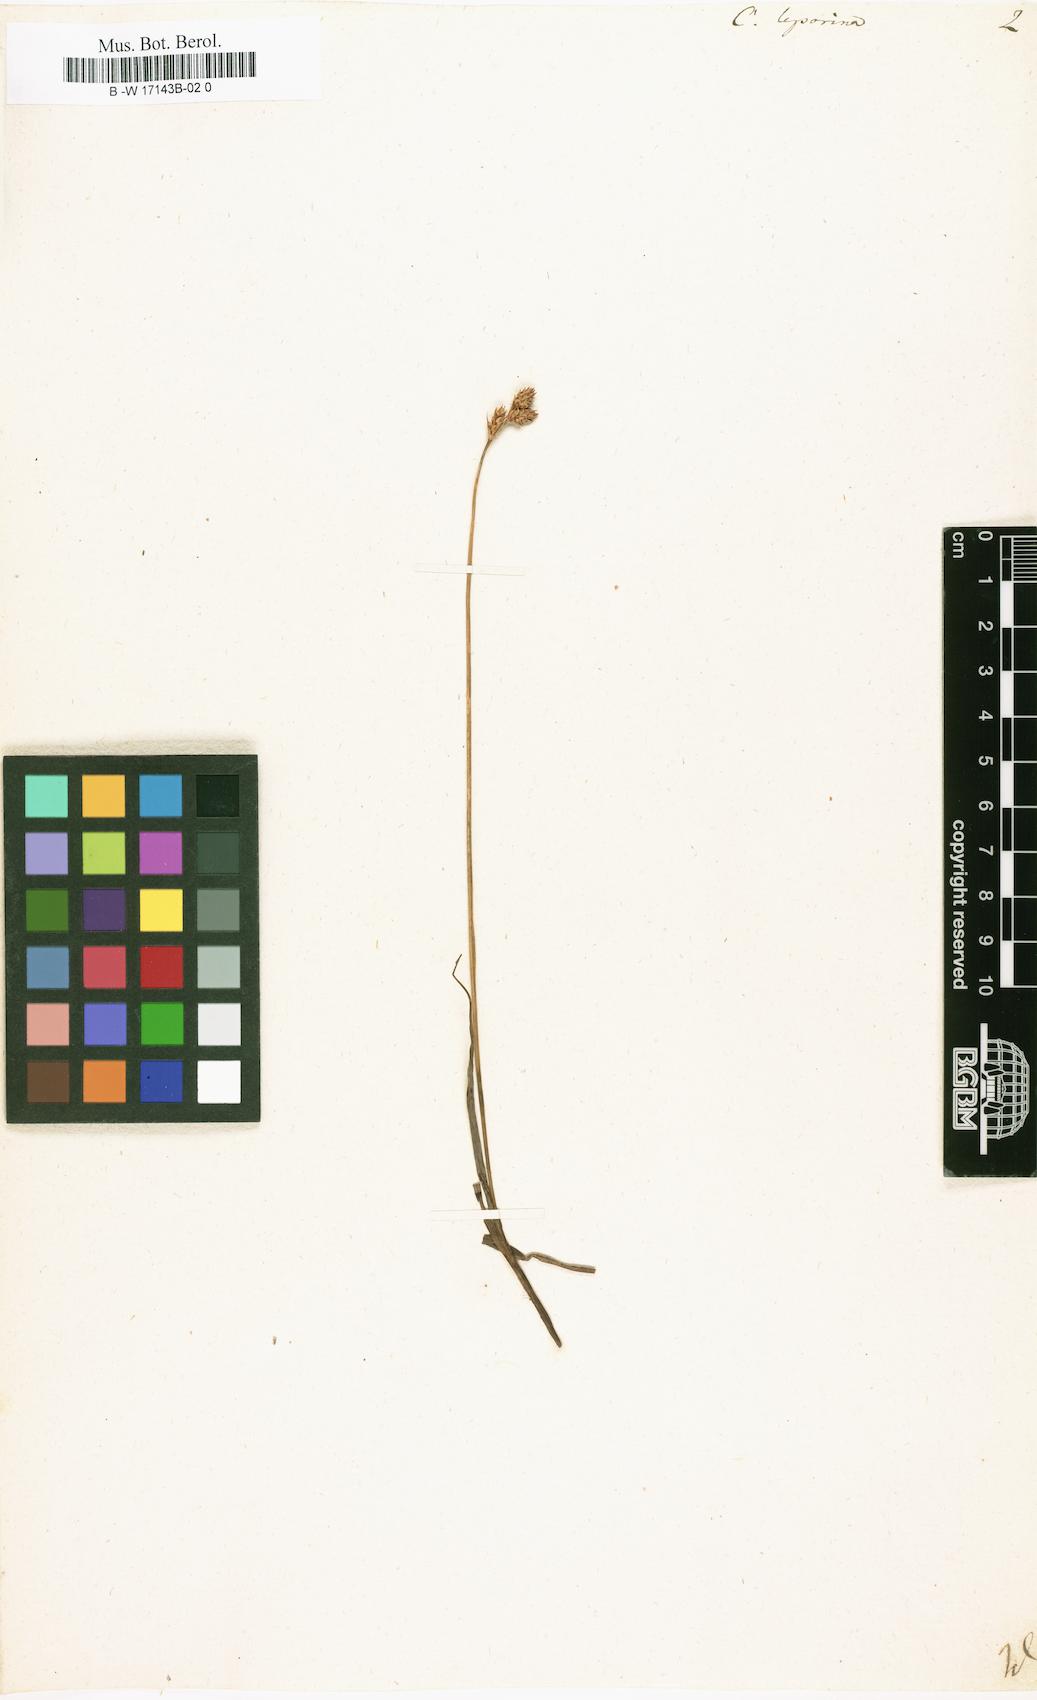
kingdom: Plantae
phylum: Tracheophyta
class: Liliopsida
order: Poales
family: Cyperaceae
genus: Carex
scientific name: Carex leporina
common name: Oval sedge
